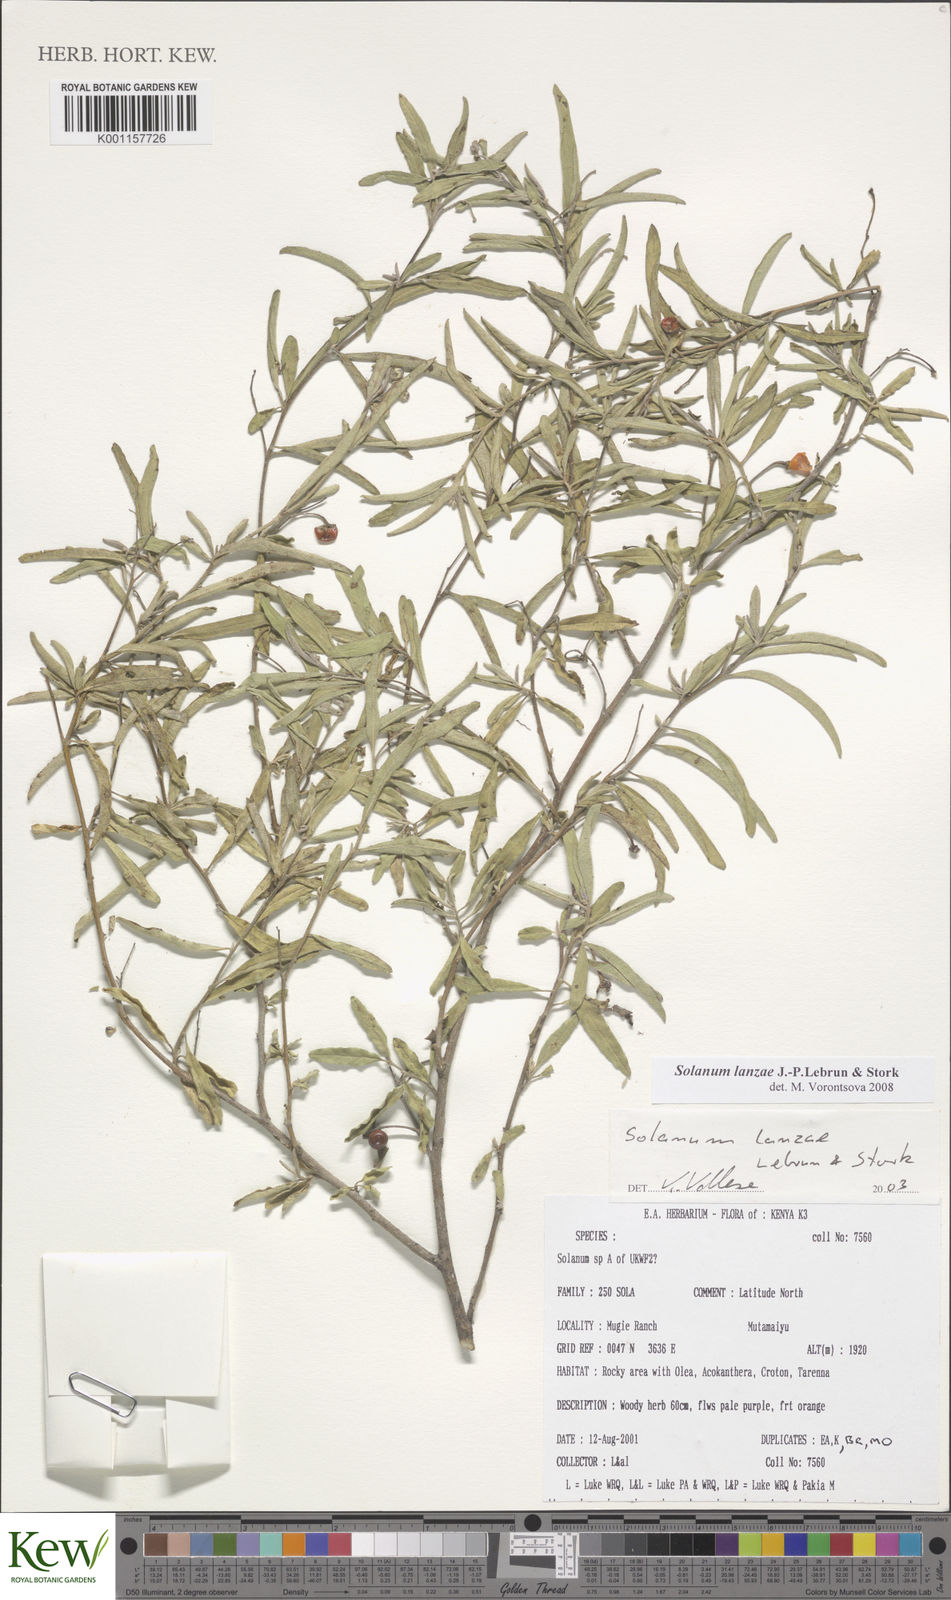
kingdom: Plantae
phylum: Tracheophyta
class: Magnoliopsida
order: Solanales
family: Solanaceae
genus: Solanum
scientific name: Solanum lanzae
